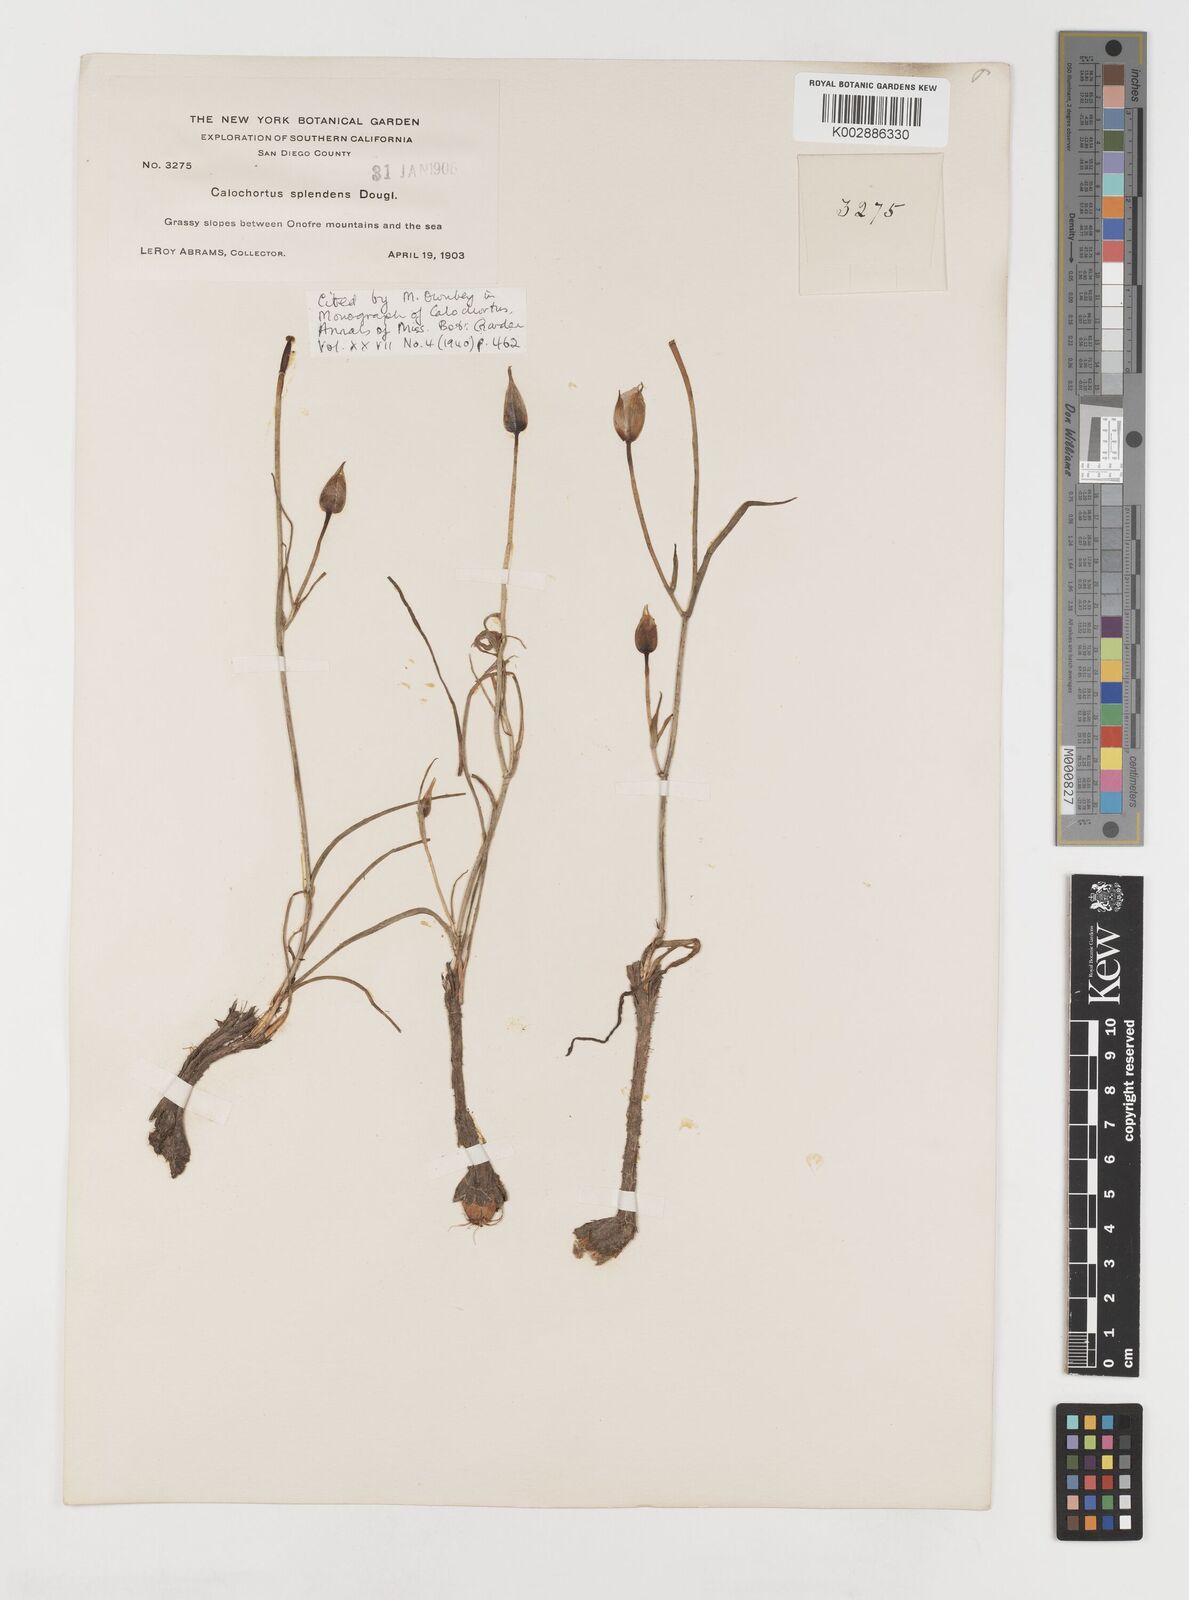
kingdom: Plantae
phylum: Tracheophyta
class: Liliopsida
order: Liliales
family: Liliaceae
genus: Calochortus
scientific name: Calochortus splendens
